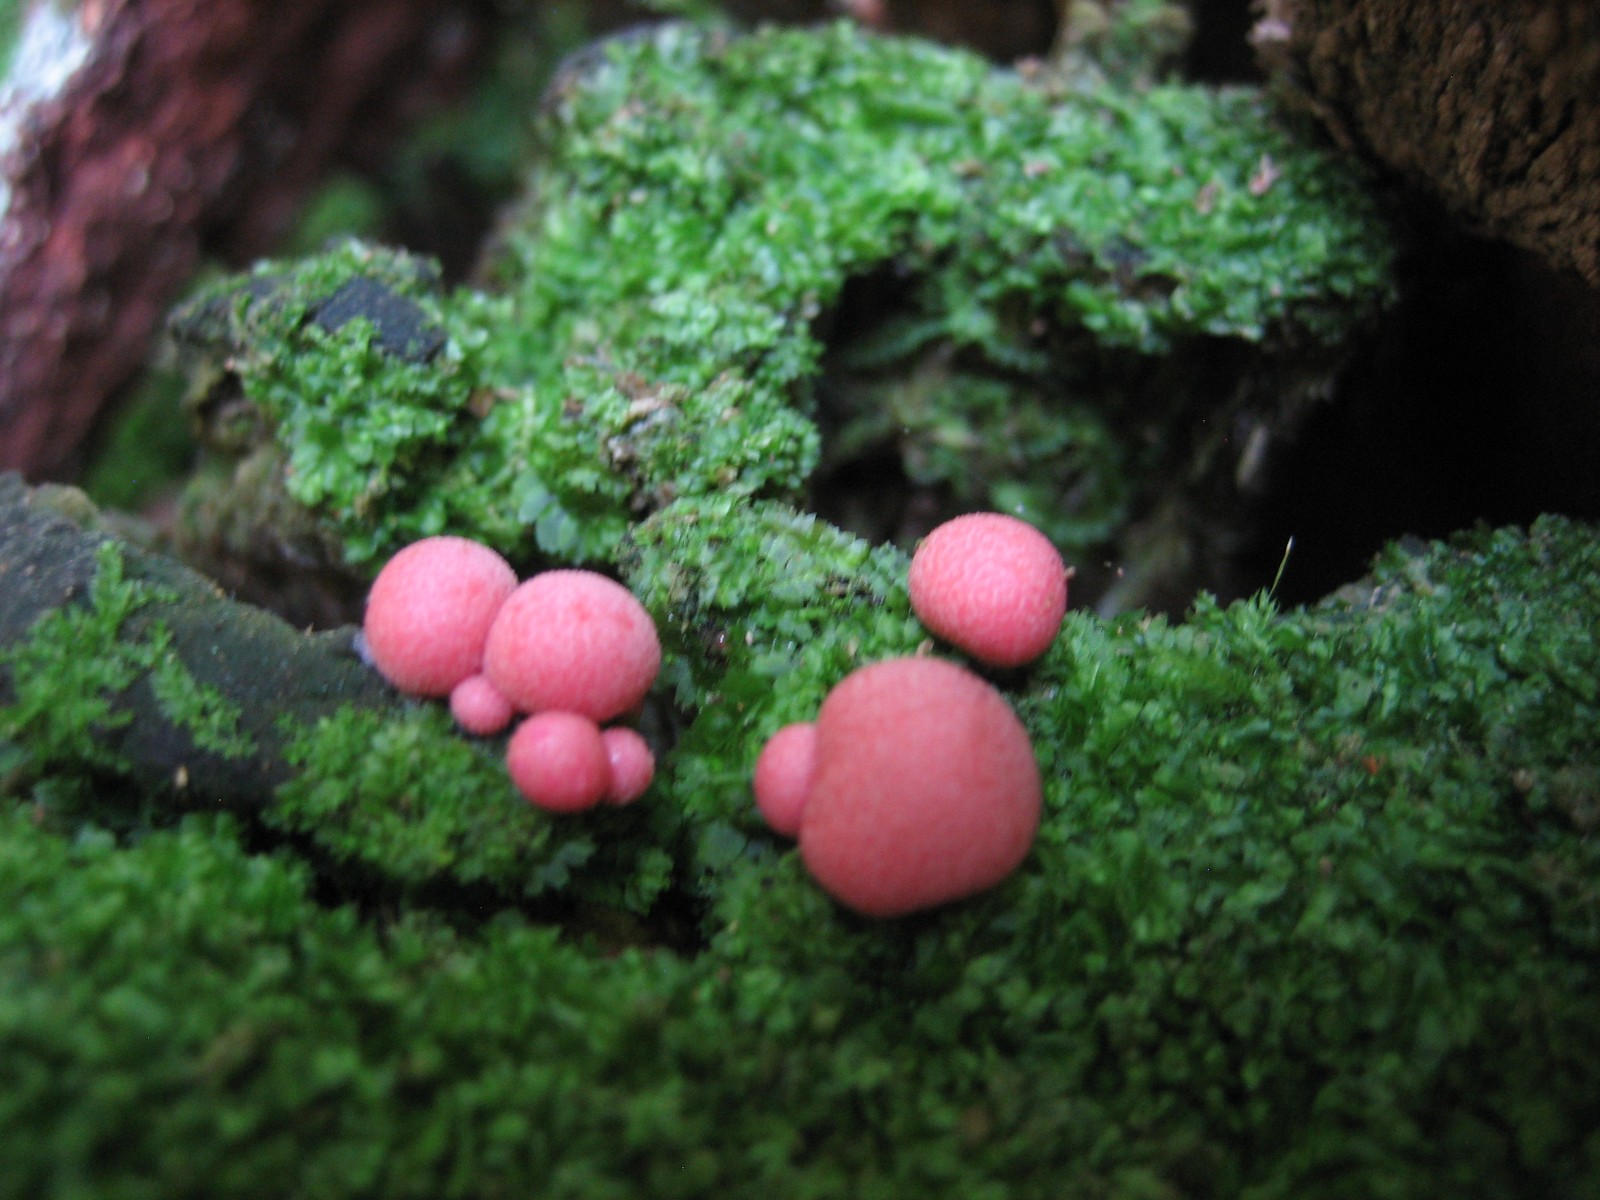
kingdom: Protozoa
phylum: Mycetozoa
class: Myxomycetes
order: Cribrariales
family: Tubiferaceae
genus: Lycogala
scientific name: Lycogala epidendrum
